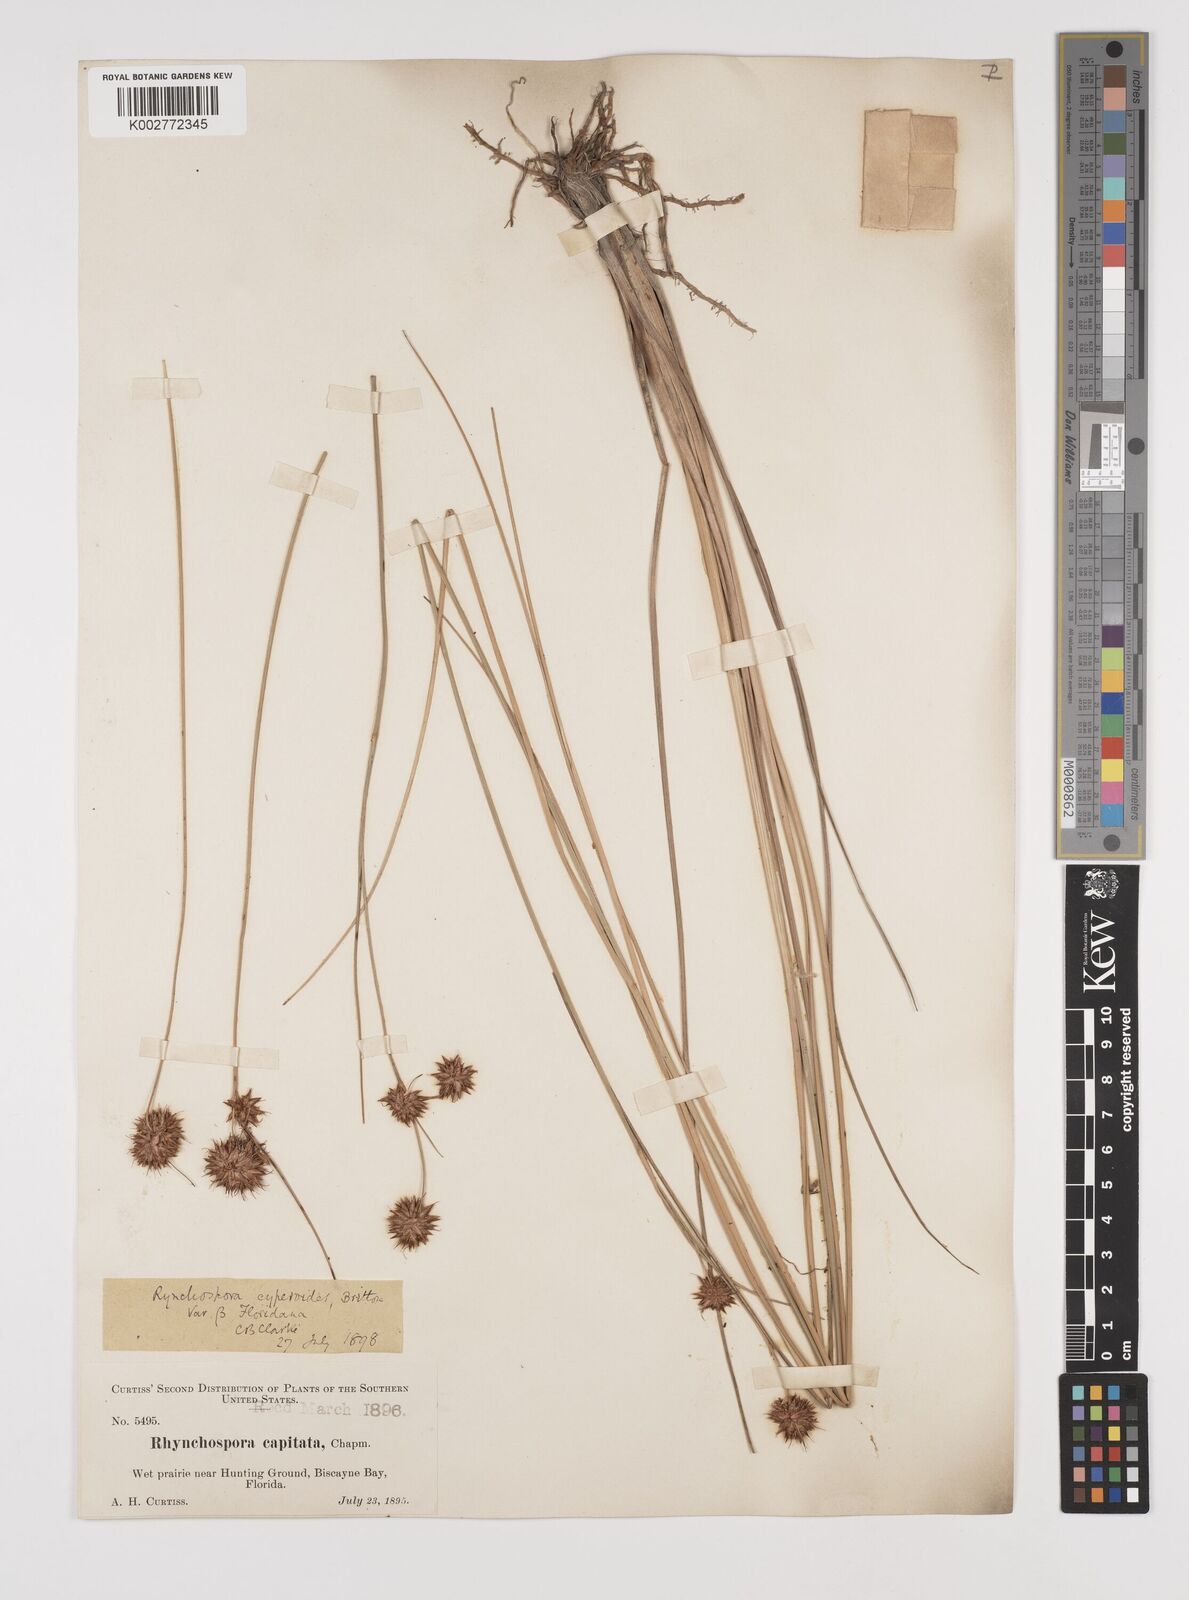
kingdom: Plantae
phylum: Tracheophyta
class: Liliopsida
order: Poales
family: Cyperaceae
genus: Rhynchospora
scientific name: Rhynchospora holoschoenoides
